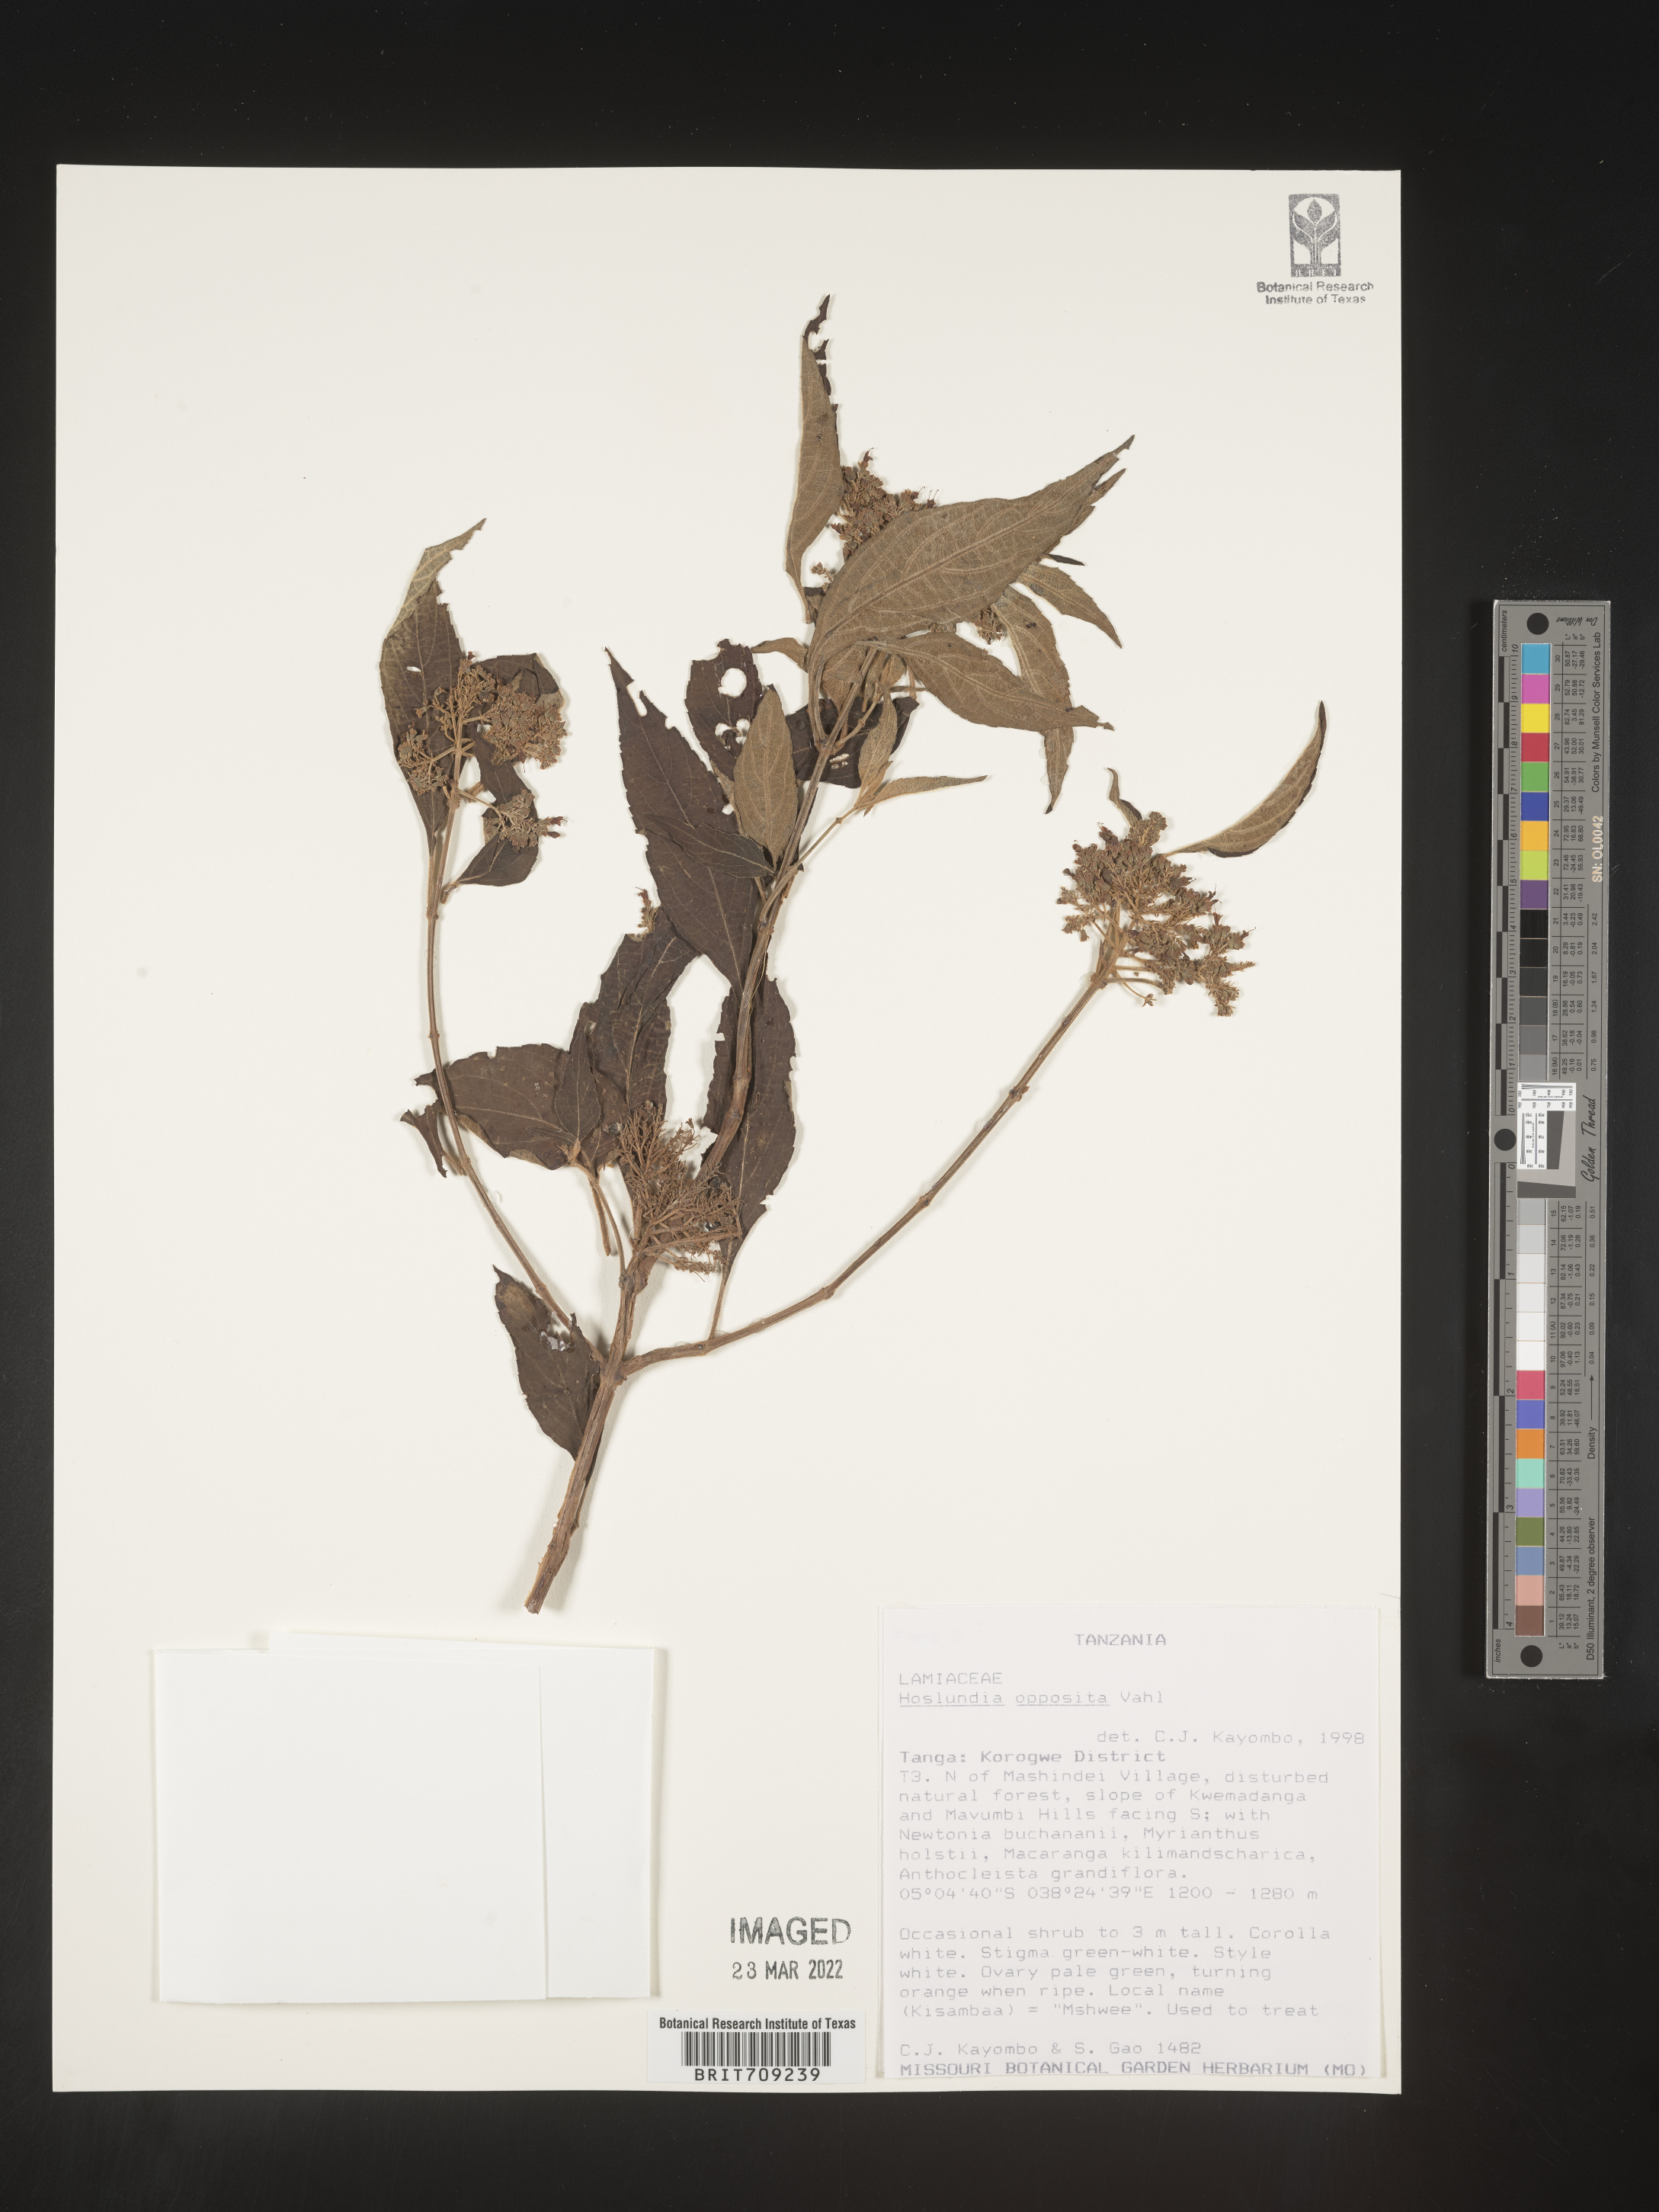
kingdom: Plantae
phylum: Tracheophyta
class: Magnoliopsida
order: Lamiales
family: Lamiaceae
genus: Hoslundia
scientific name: Hoslundia opposita
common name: Kamyuye
